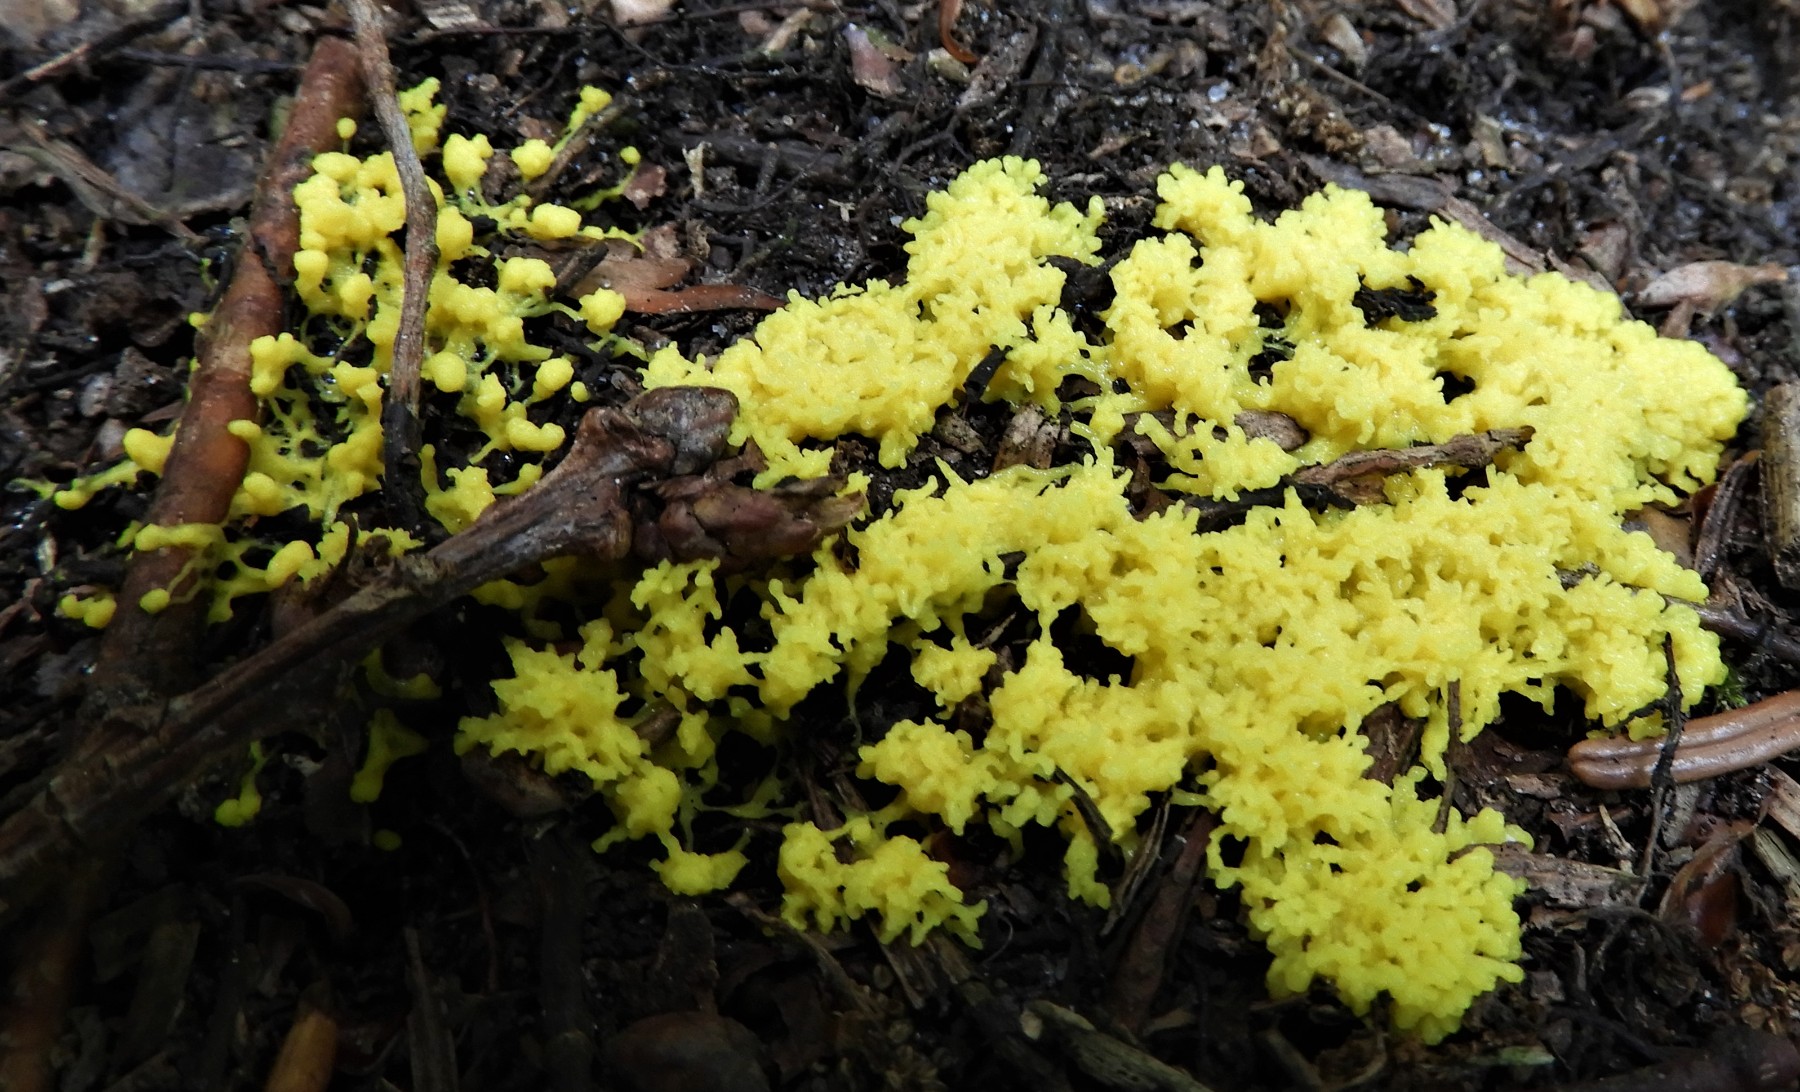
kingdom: Protozoa
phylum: Mycetozoa
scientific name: Mycetozoa
